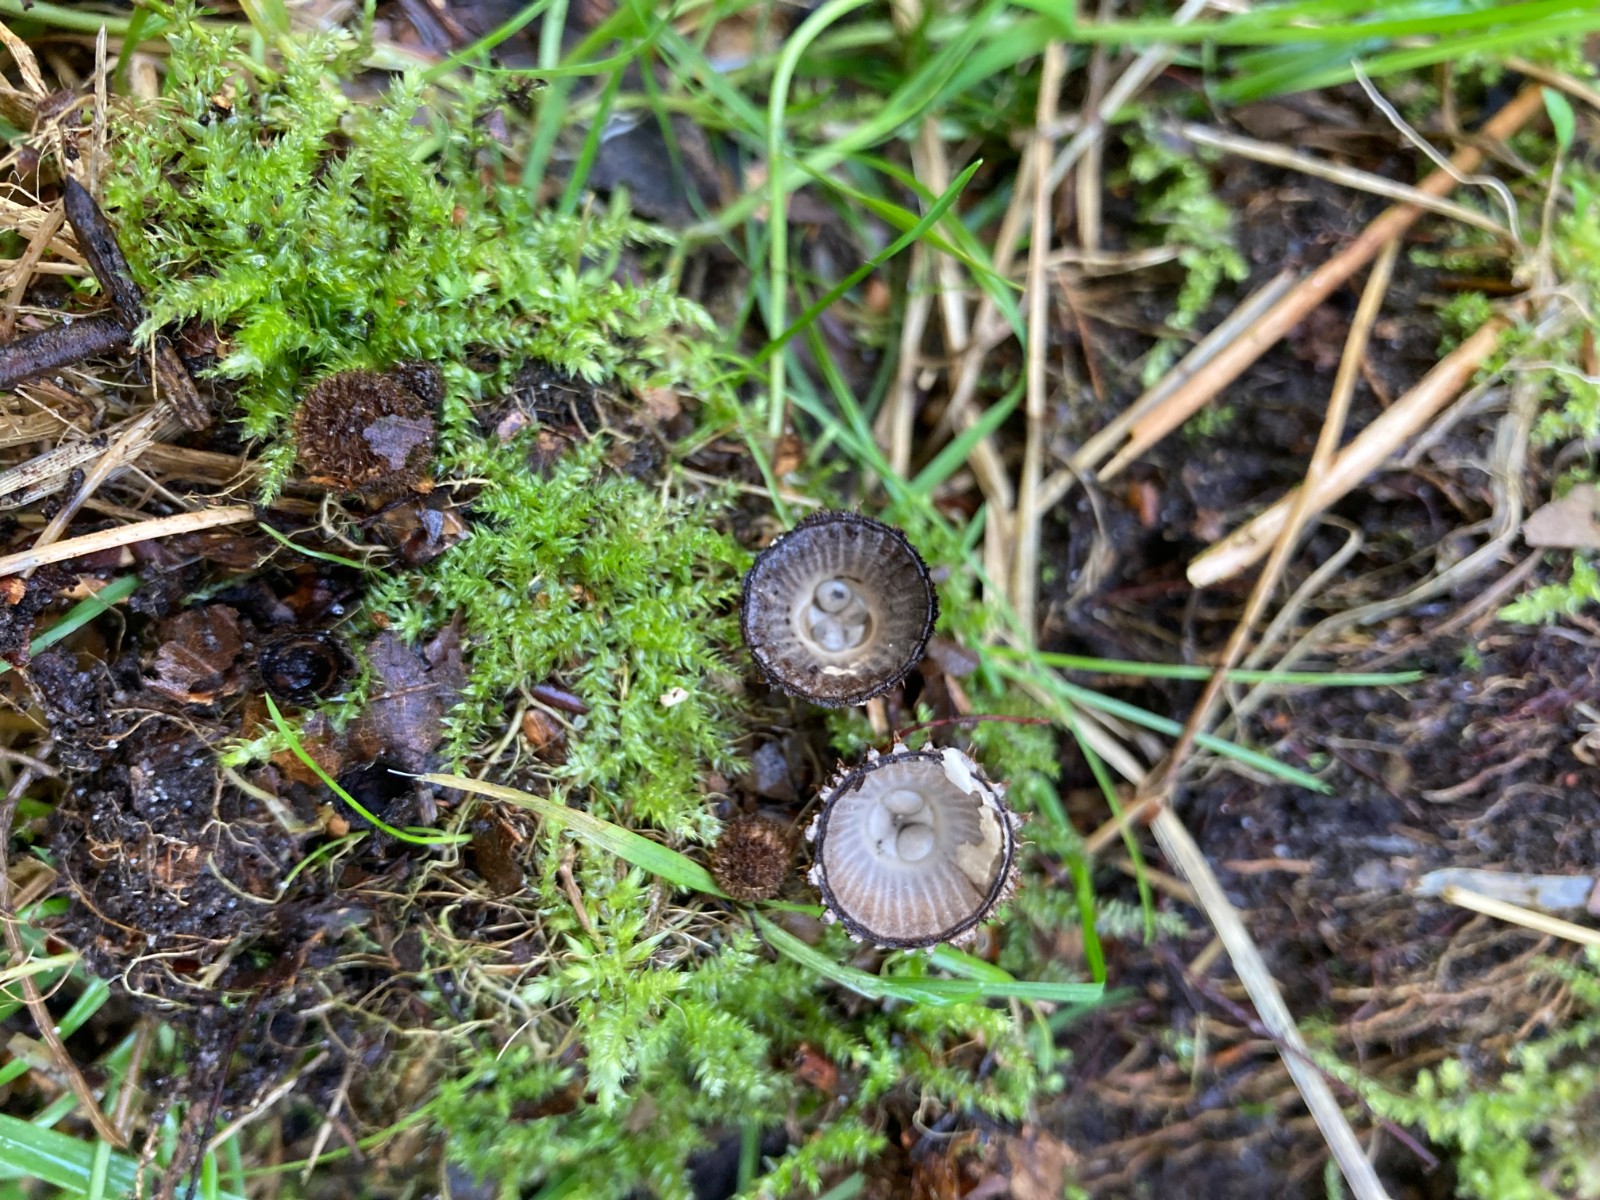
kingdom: Fungi
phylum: Basidiomycota
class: Agaricomycetes
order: Agaricales
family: Agaricaceae
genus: Cyathus
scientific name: Cyathus striatus
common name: stribet redesvamp
